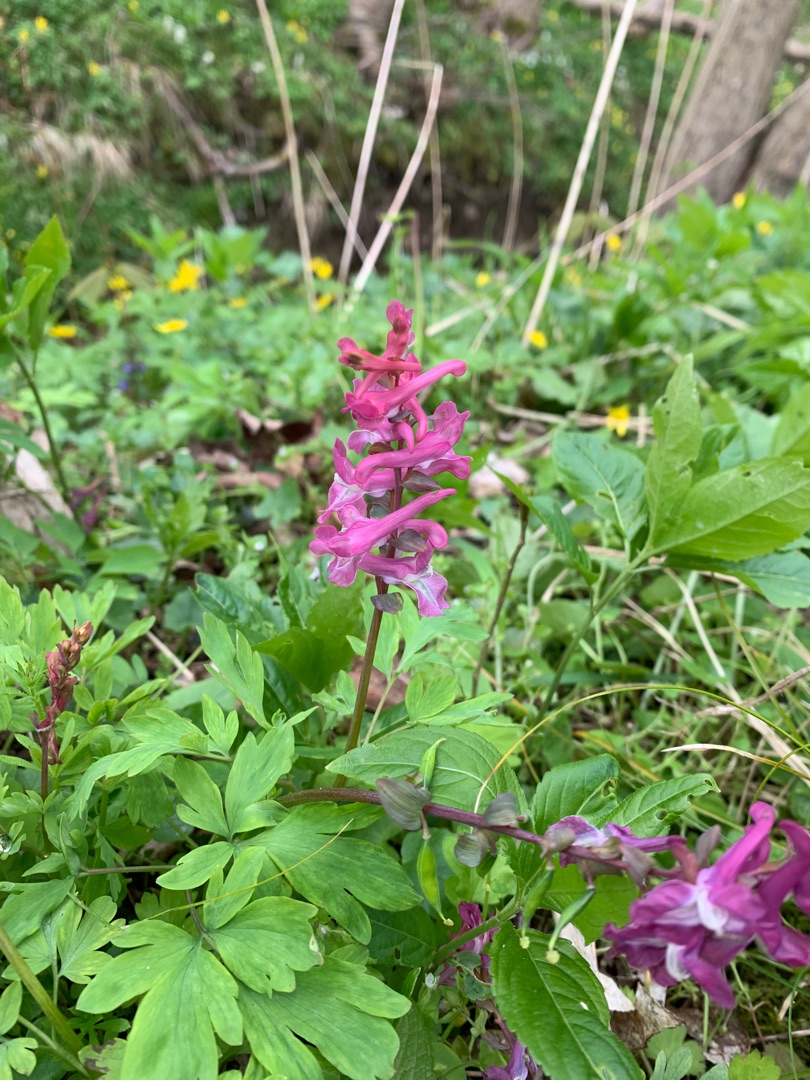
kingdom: Plantae
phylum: Tracheophyta
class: Magnoliopsida
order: Ranunculales
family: Papaveraceae
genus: Corydalis
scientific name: Corydalis cava
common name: Hulrodet lærkespore
